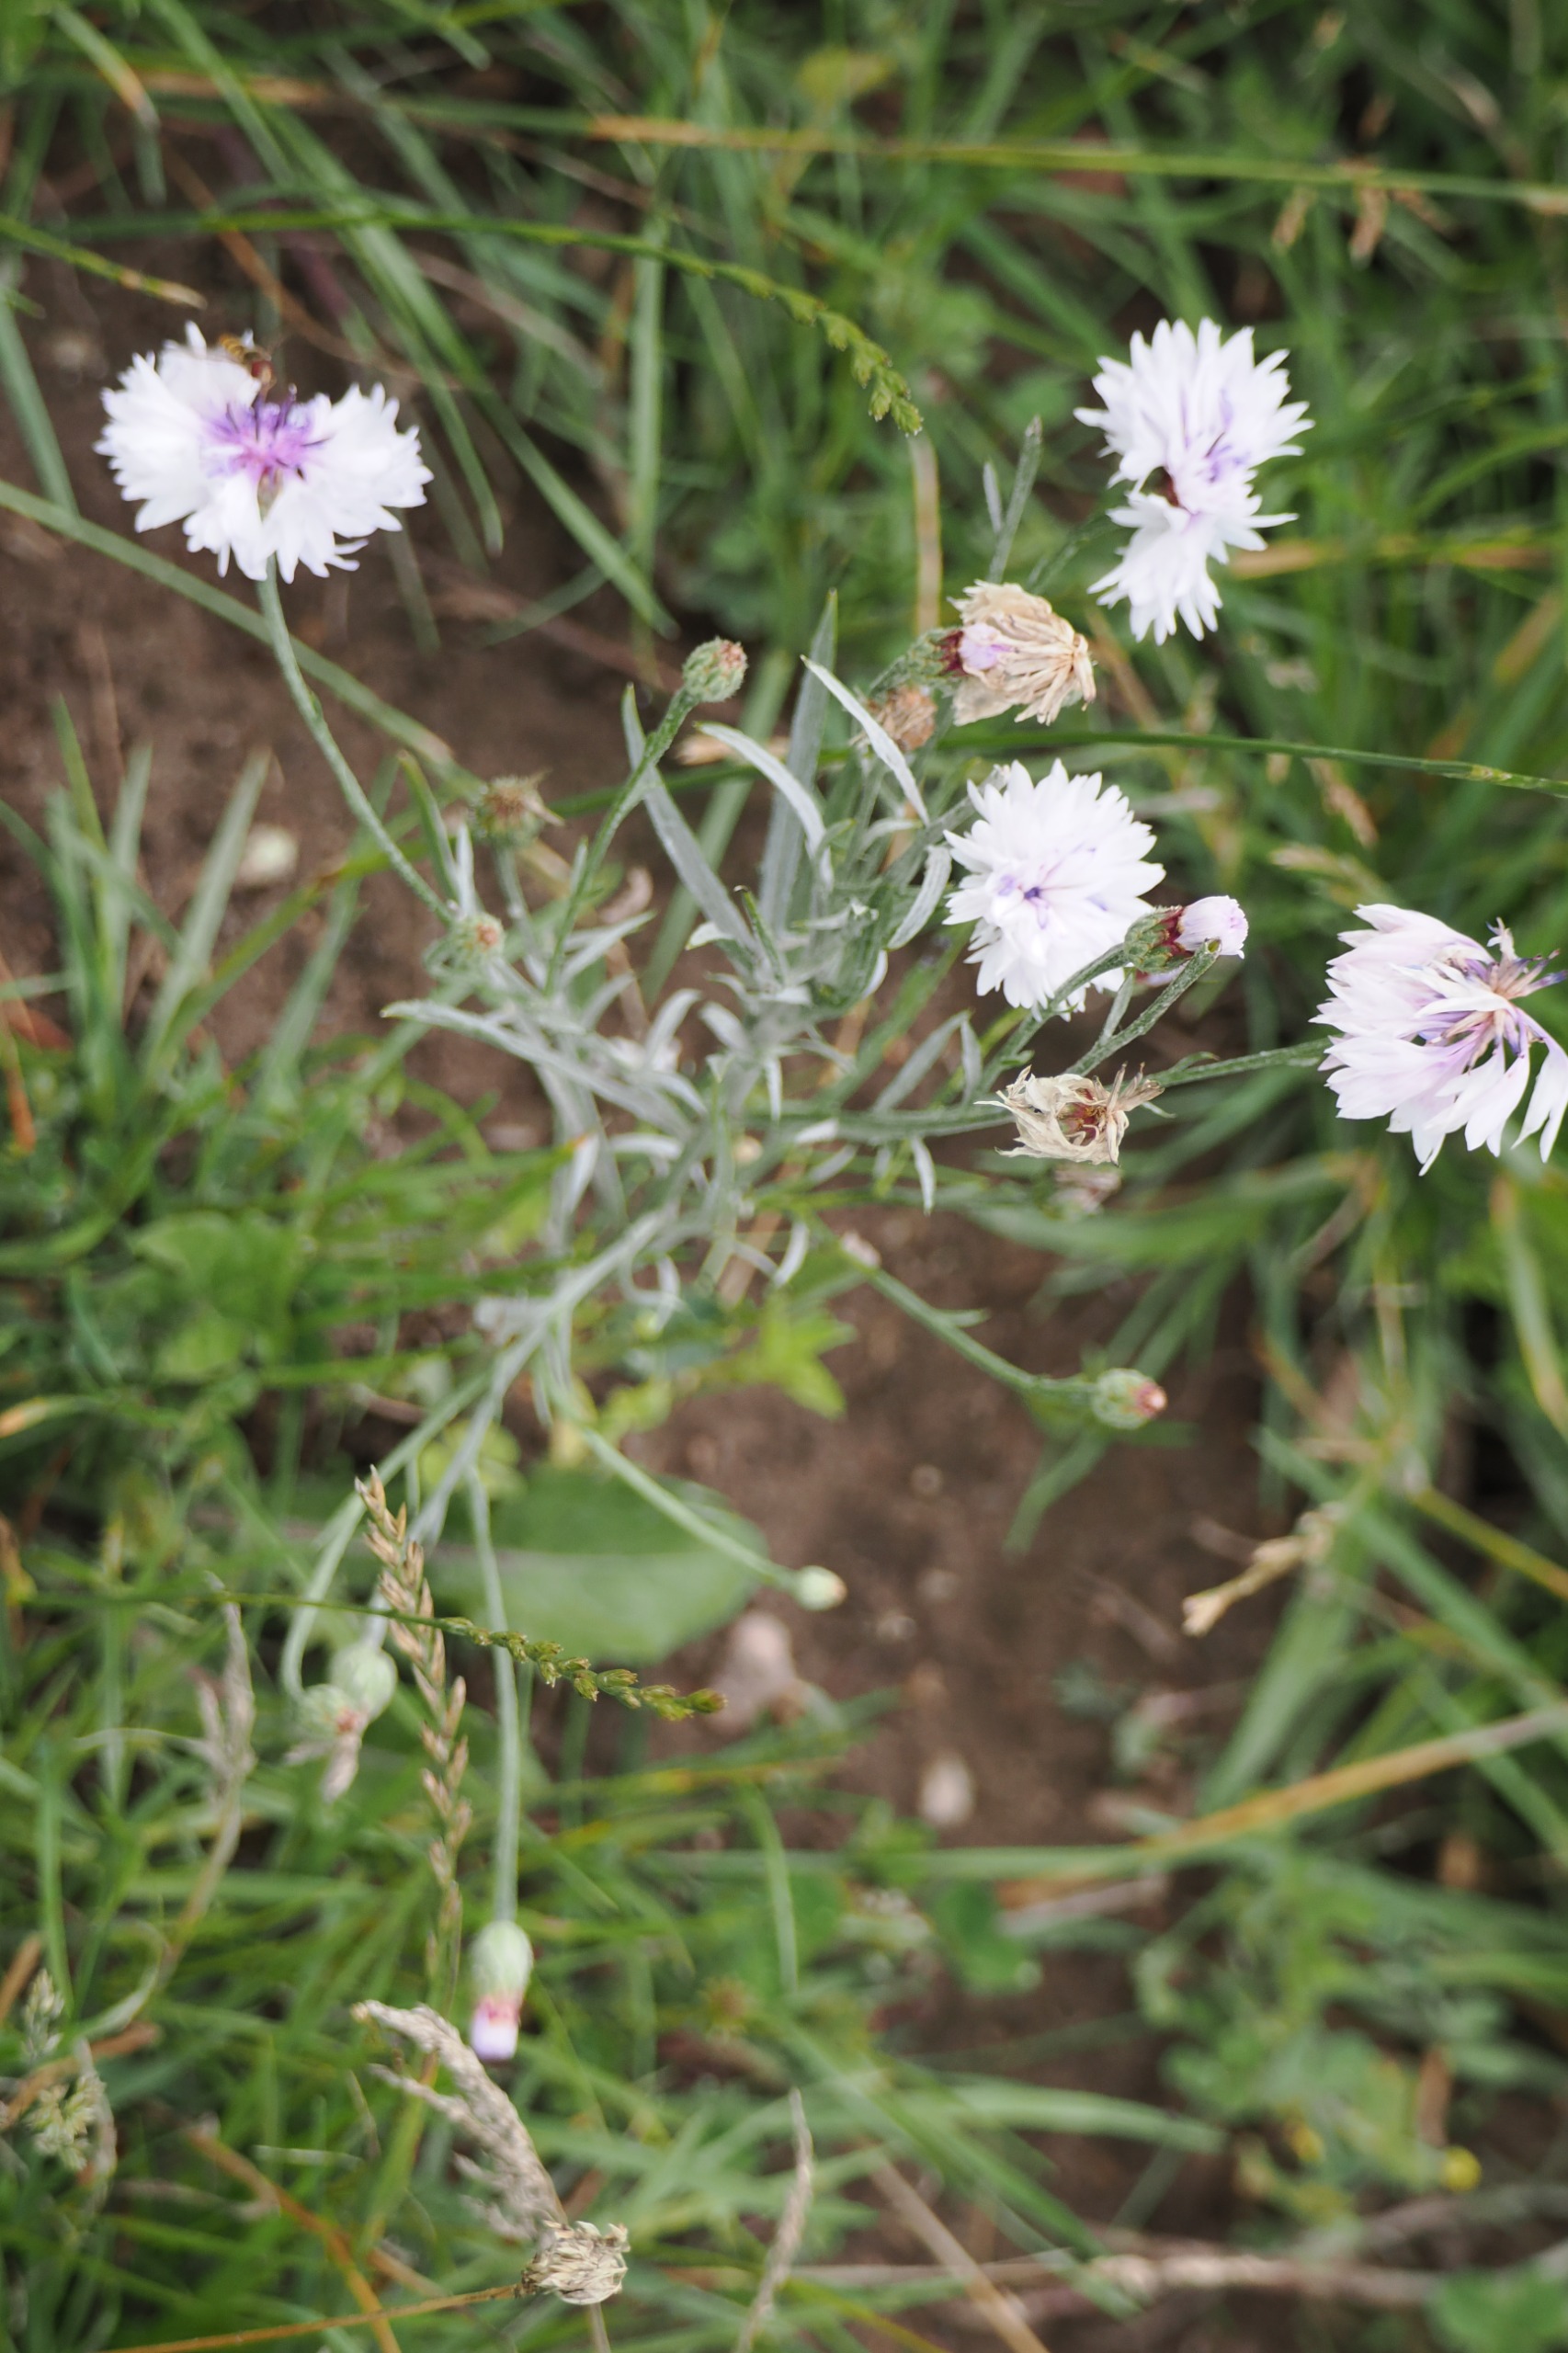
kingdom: Plantae
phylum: Tracheophyta
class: Magnoliopsida
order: Asterales
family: Asteraceae
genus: Centaurea
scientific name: Centaurea cyanus
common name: Kornblomst
